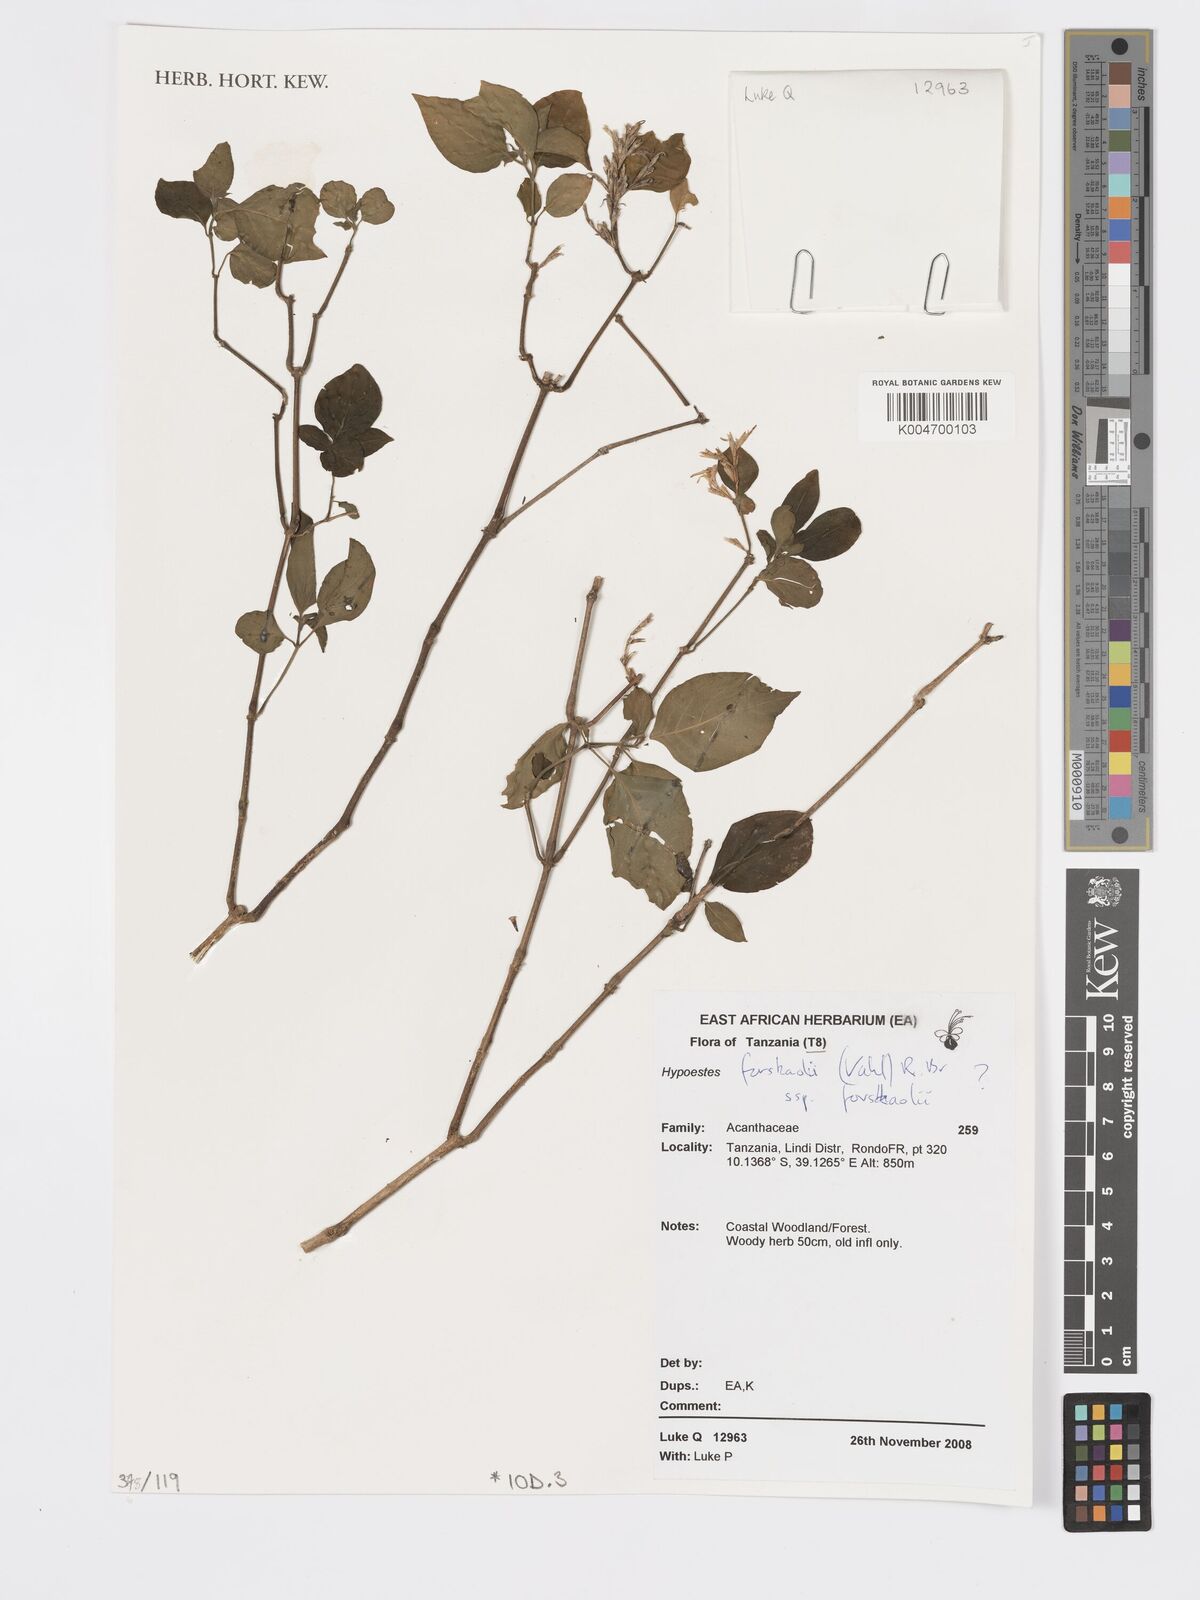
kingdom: Plantae
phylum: Tracheophyta
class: Magnoliopsida
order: Lamiales
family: Acanthaceae
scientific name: Acanthaceae
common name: Acanthaceae
